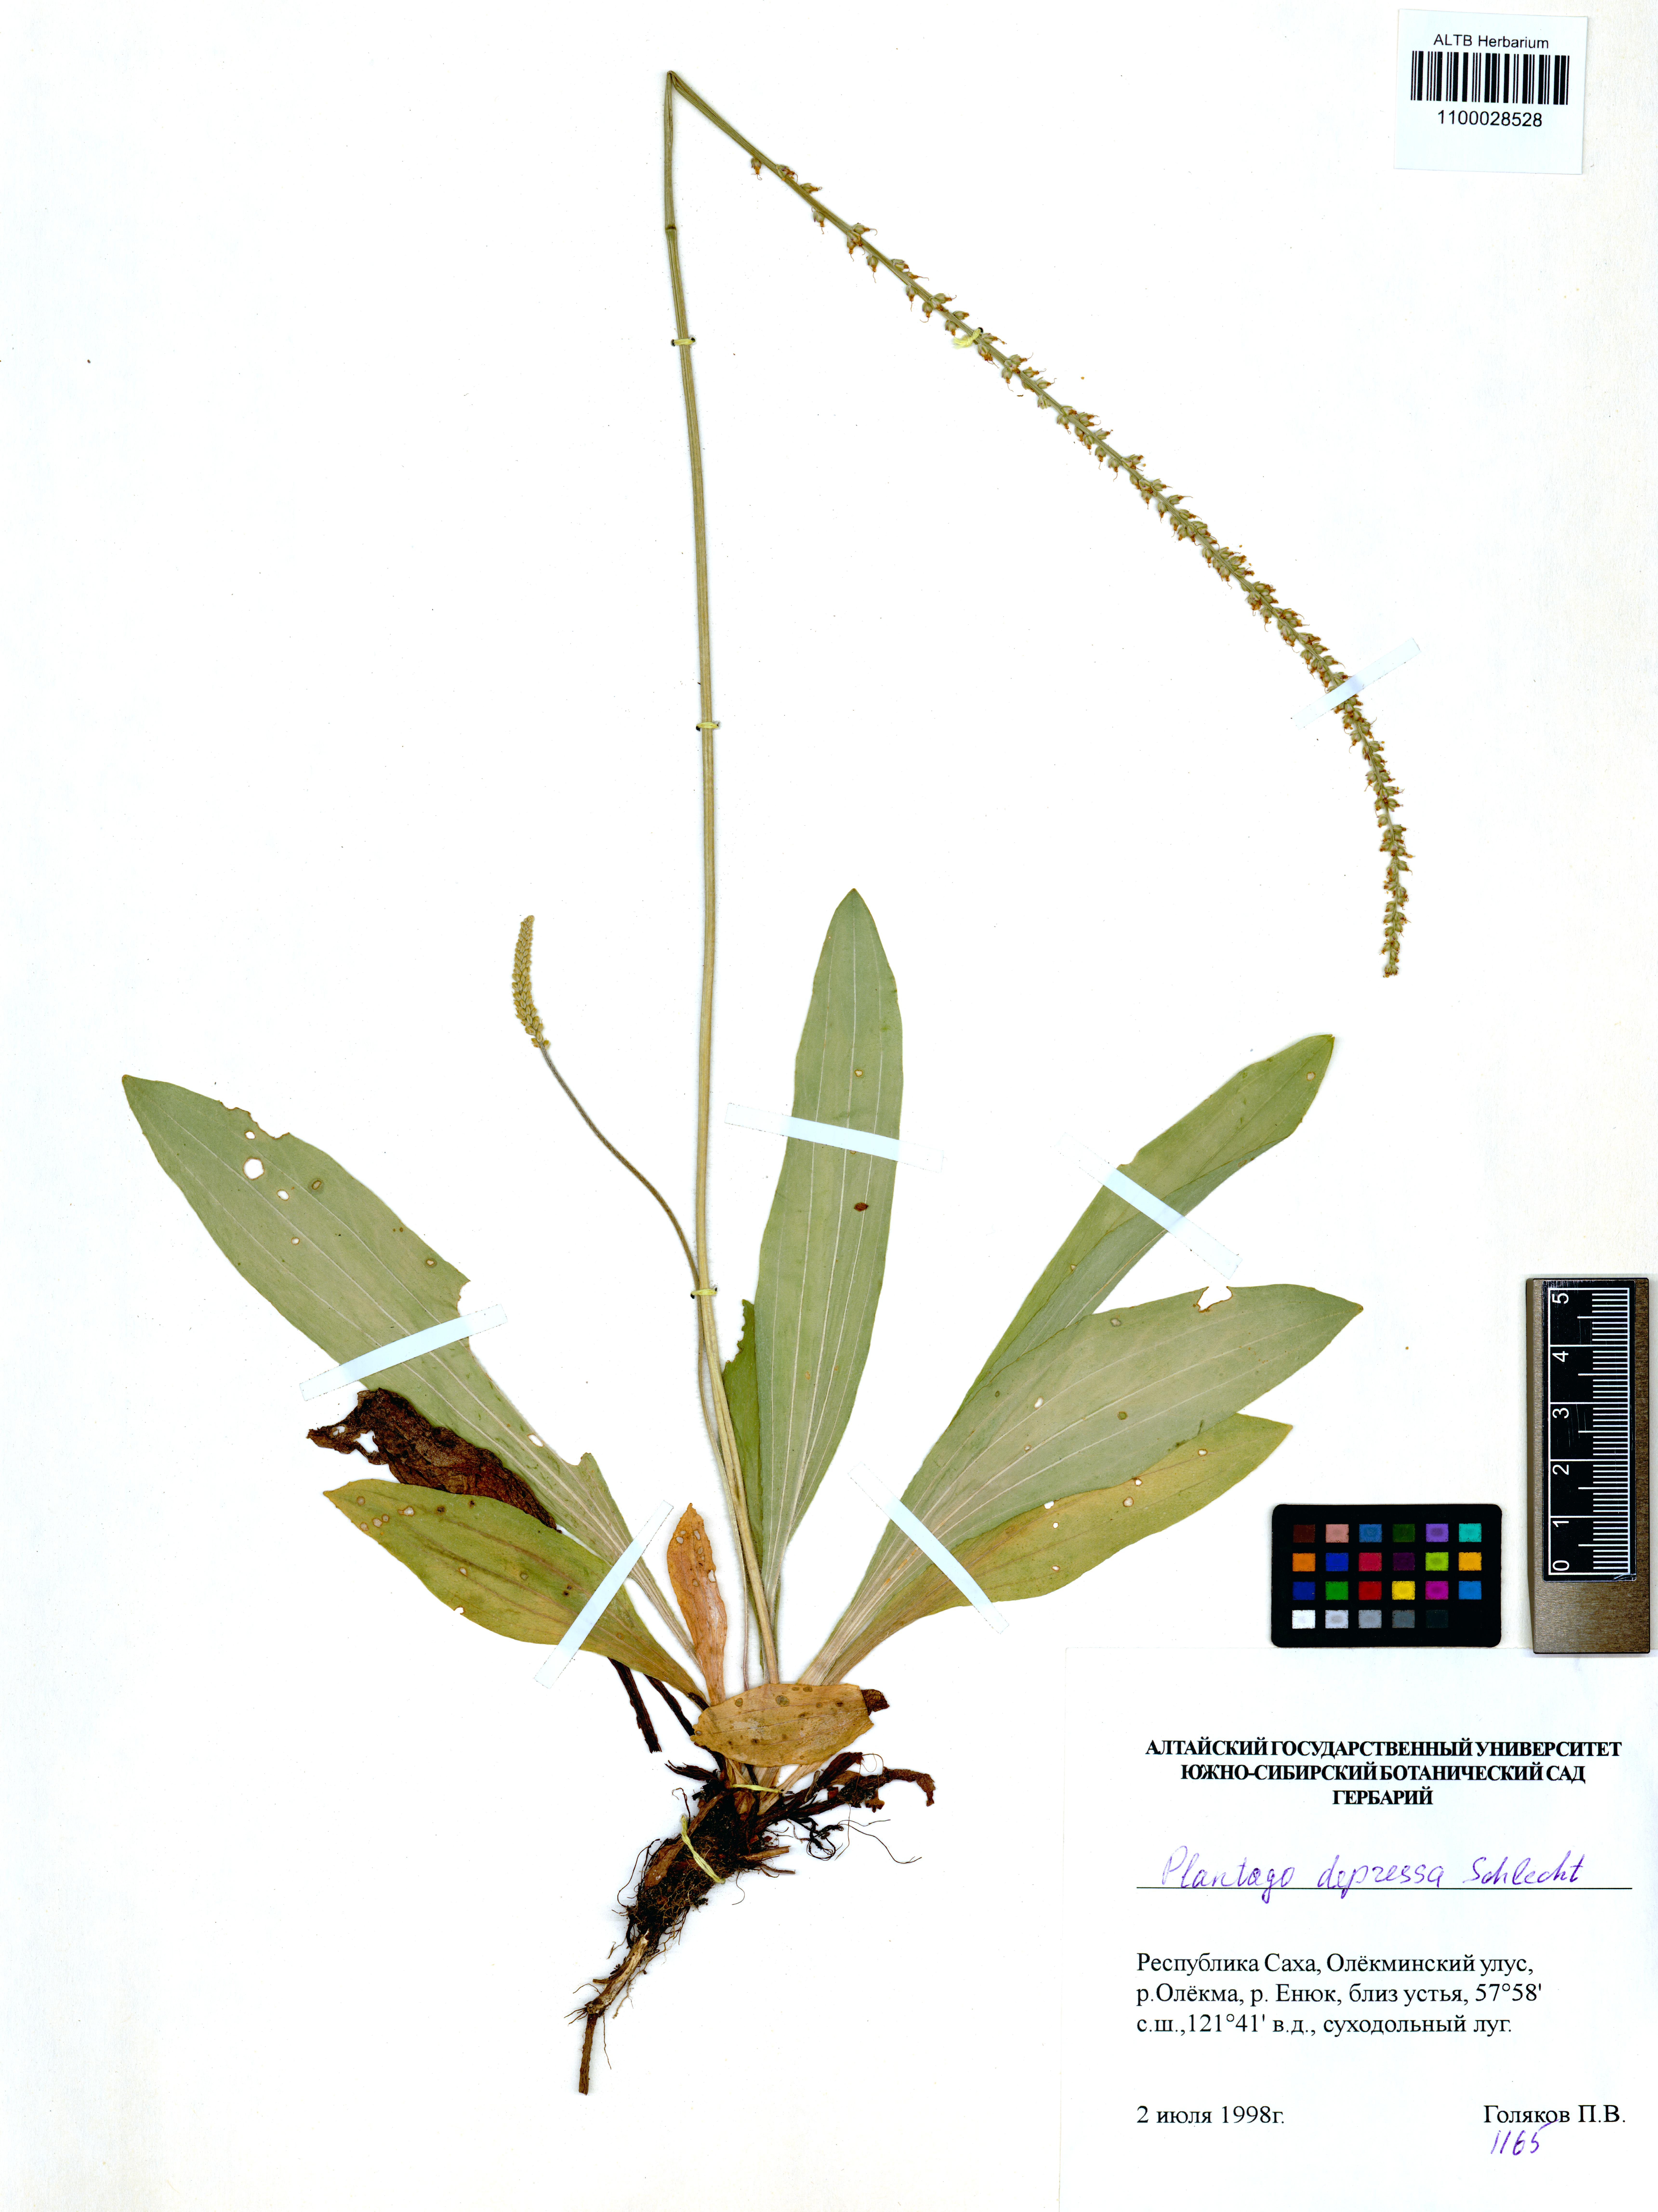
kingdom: Plantae
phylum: Tracheophyta
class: Magnoliopsida
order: Lamiales
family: Plantaginaceae
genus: Plantago
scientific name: Plantago depressa
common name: Depressed plantain
